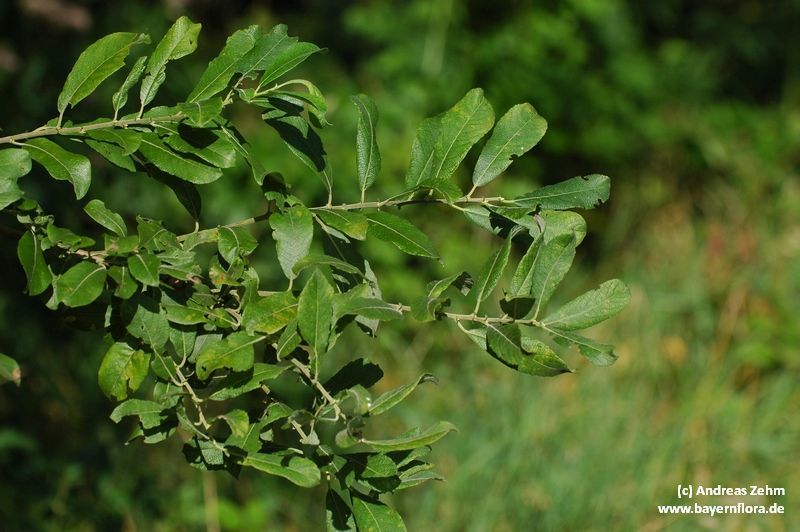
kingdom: Plantae
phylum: Tracheophyta
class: Magnoliopsida
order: Malpighiales
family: Salicaceae
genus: Salix
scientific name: Salix cinerea
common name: Common sallow
